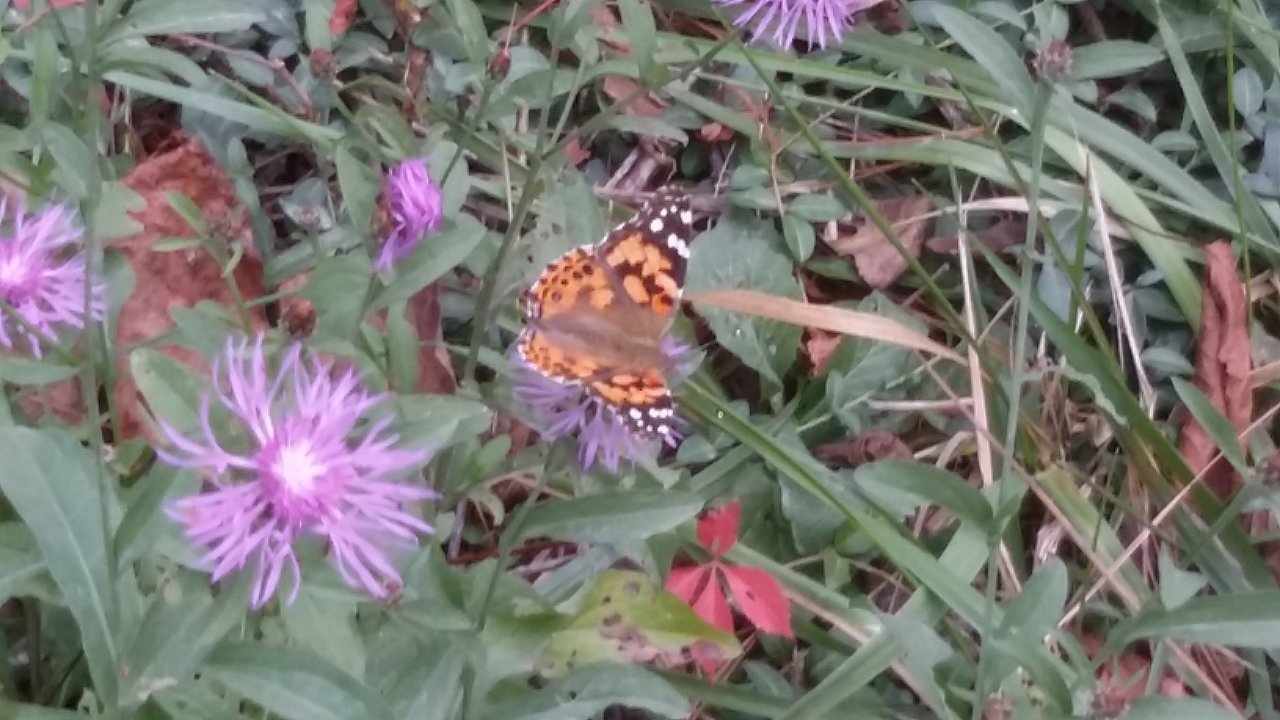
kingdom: Animalia
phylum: Arthropoda
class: Insecta
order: Lepidoptera
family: Nymphalidae
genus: Vanessa
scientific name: Vanessa cardui
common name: Painted Lady
